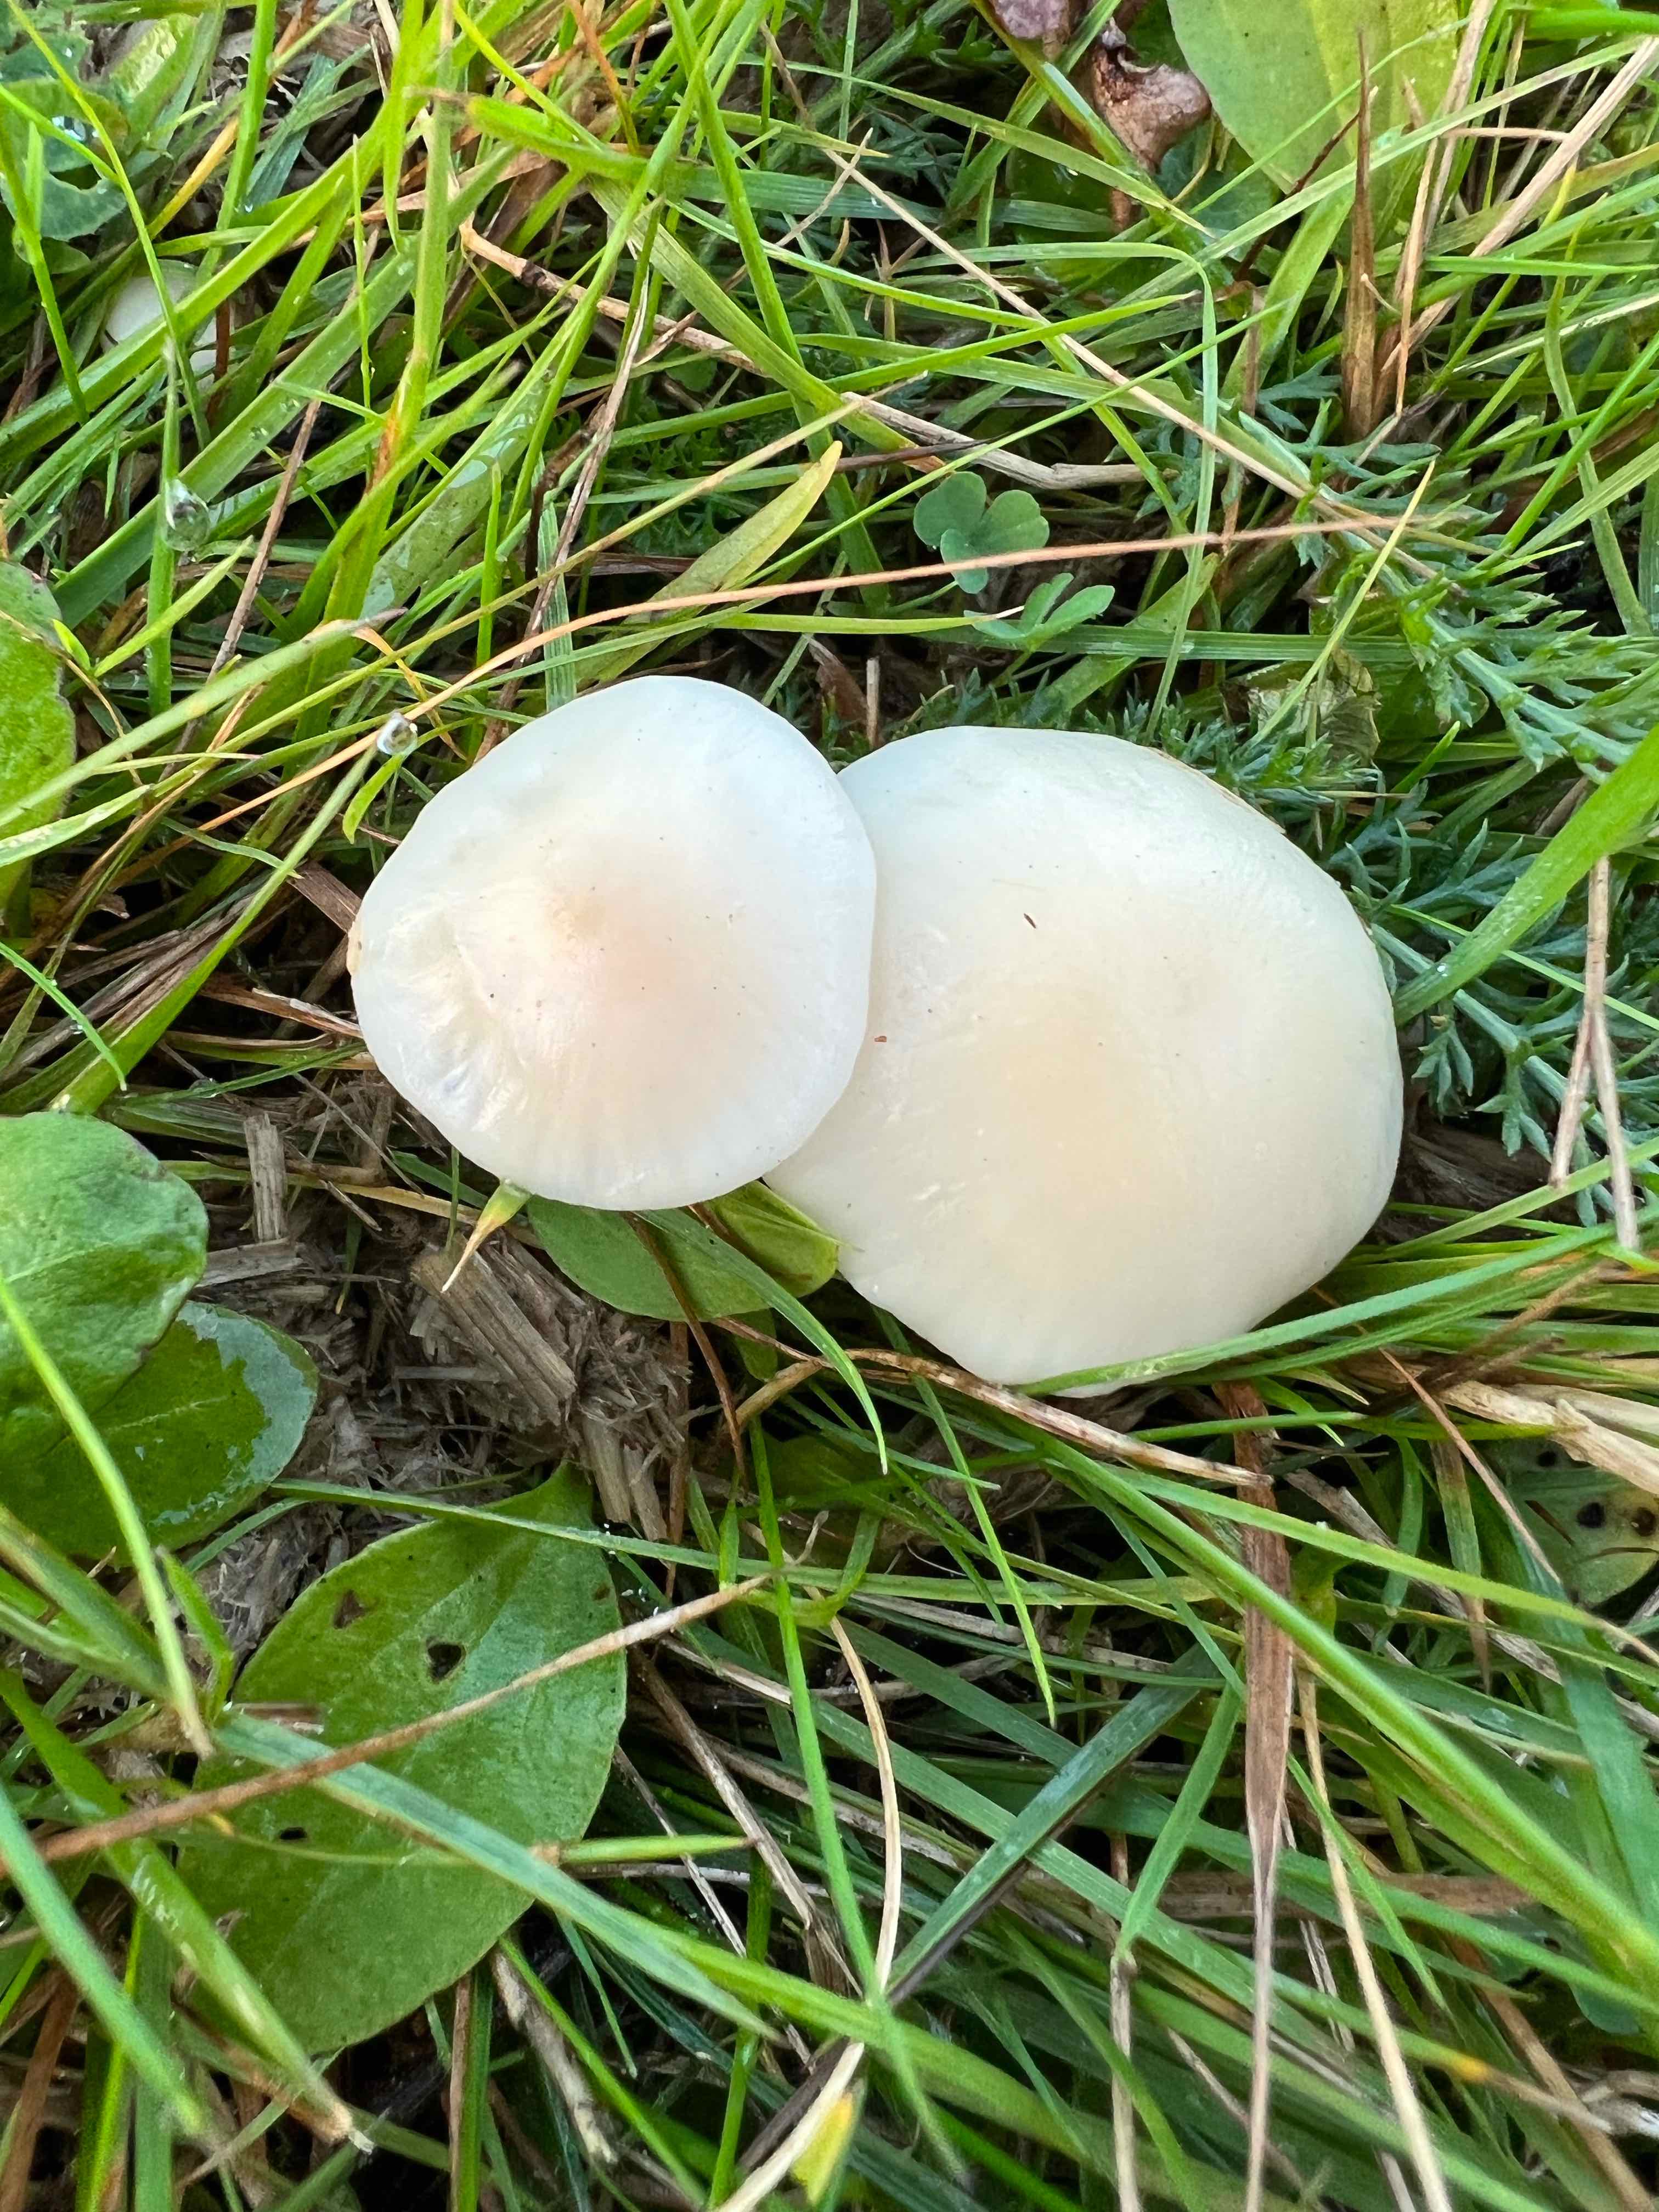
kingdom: Fungi
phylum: Basidiomycota
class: Agaricomycetes
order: Agaricales
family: Hygrophoraceae
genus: Cuphophyllus
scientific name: Cuphophyllus russocoriaceus
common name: ruslæder-vokshat
